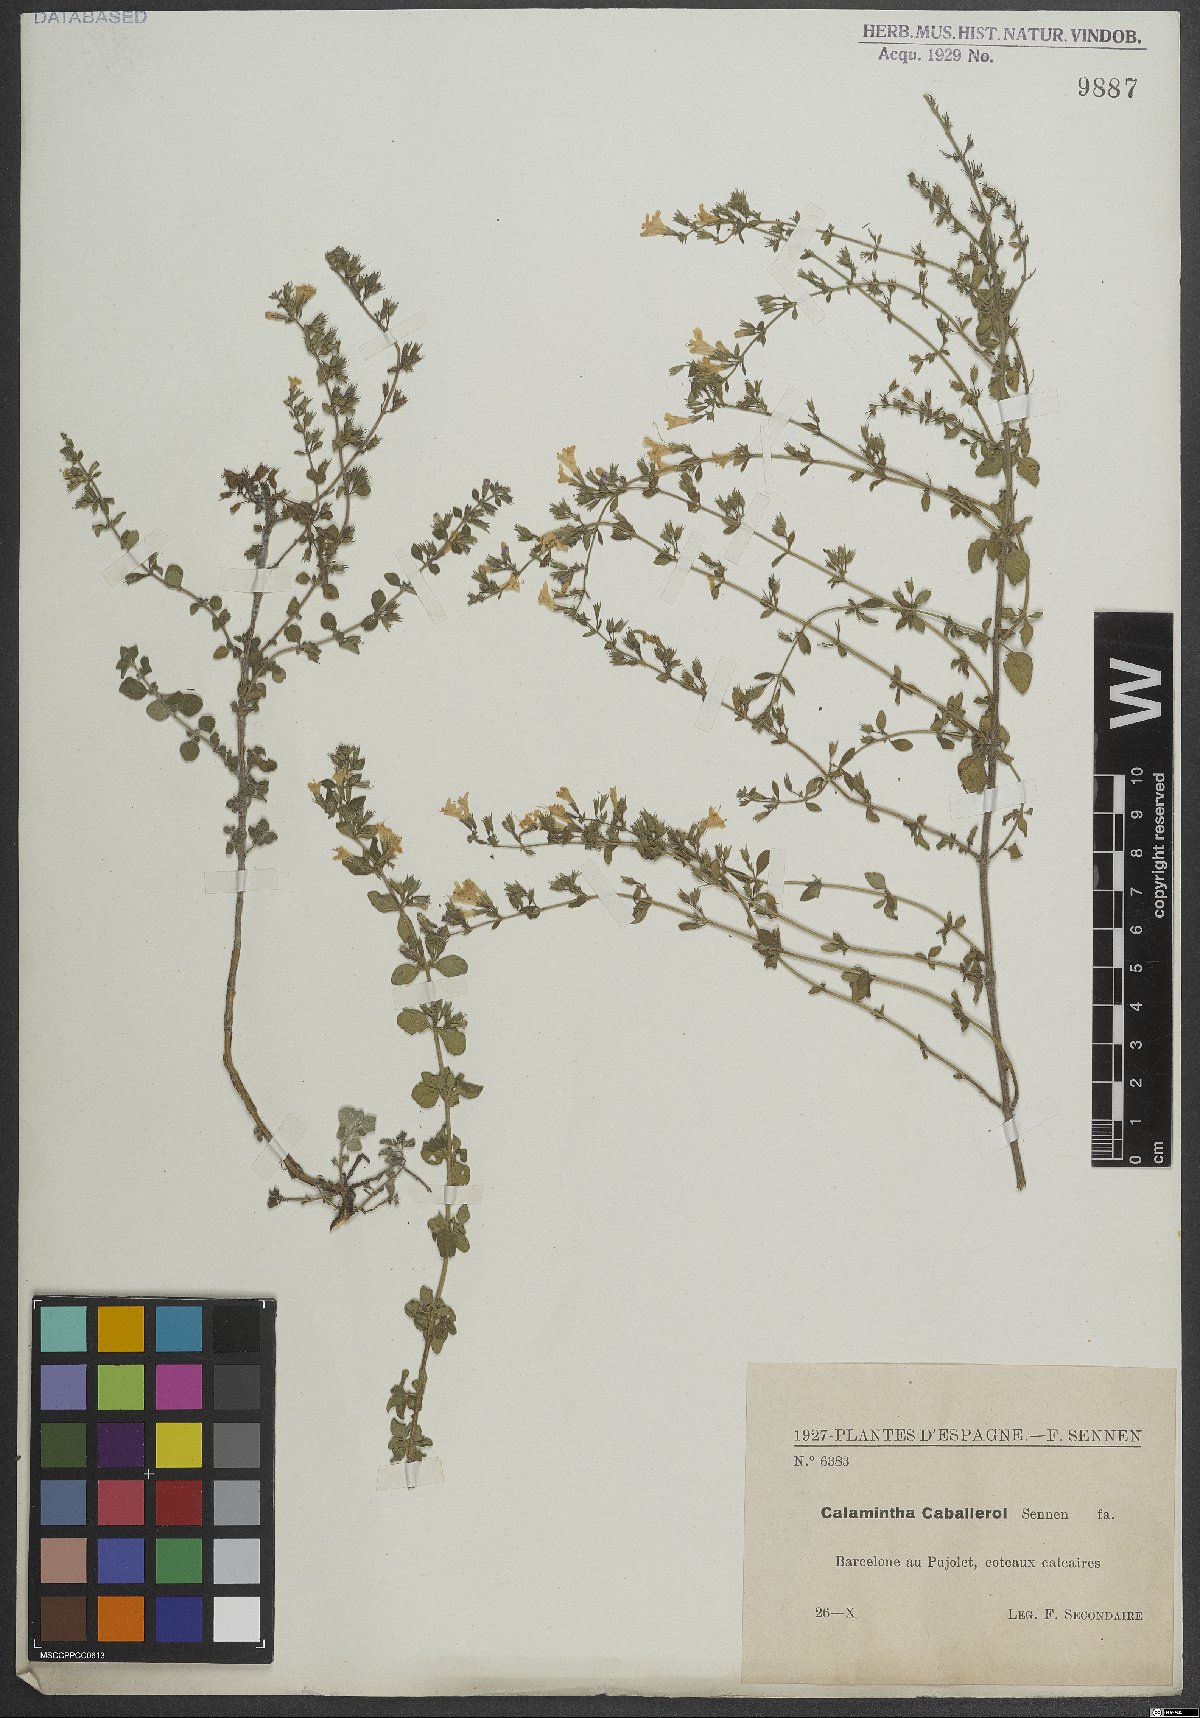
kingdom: Plantae
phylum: Tracheophyta
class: Magnoliopsida
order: Lamiales
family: Lamiaceae
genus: Clinopodium
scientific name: Clinopodium nepeta
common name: Lesser calamint
